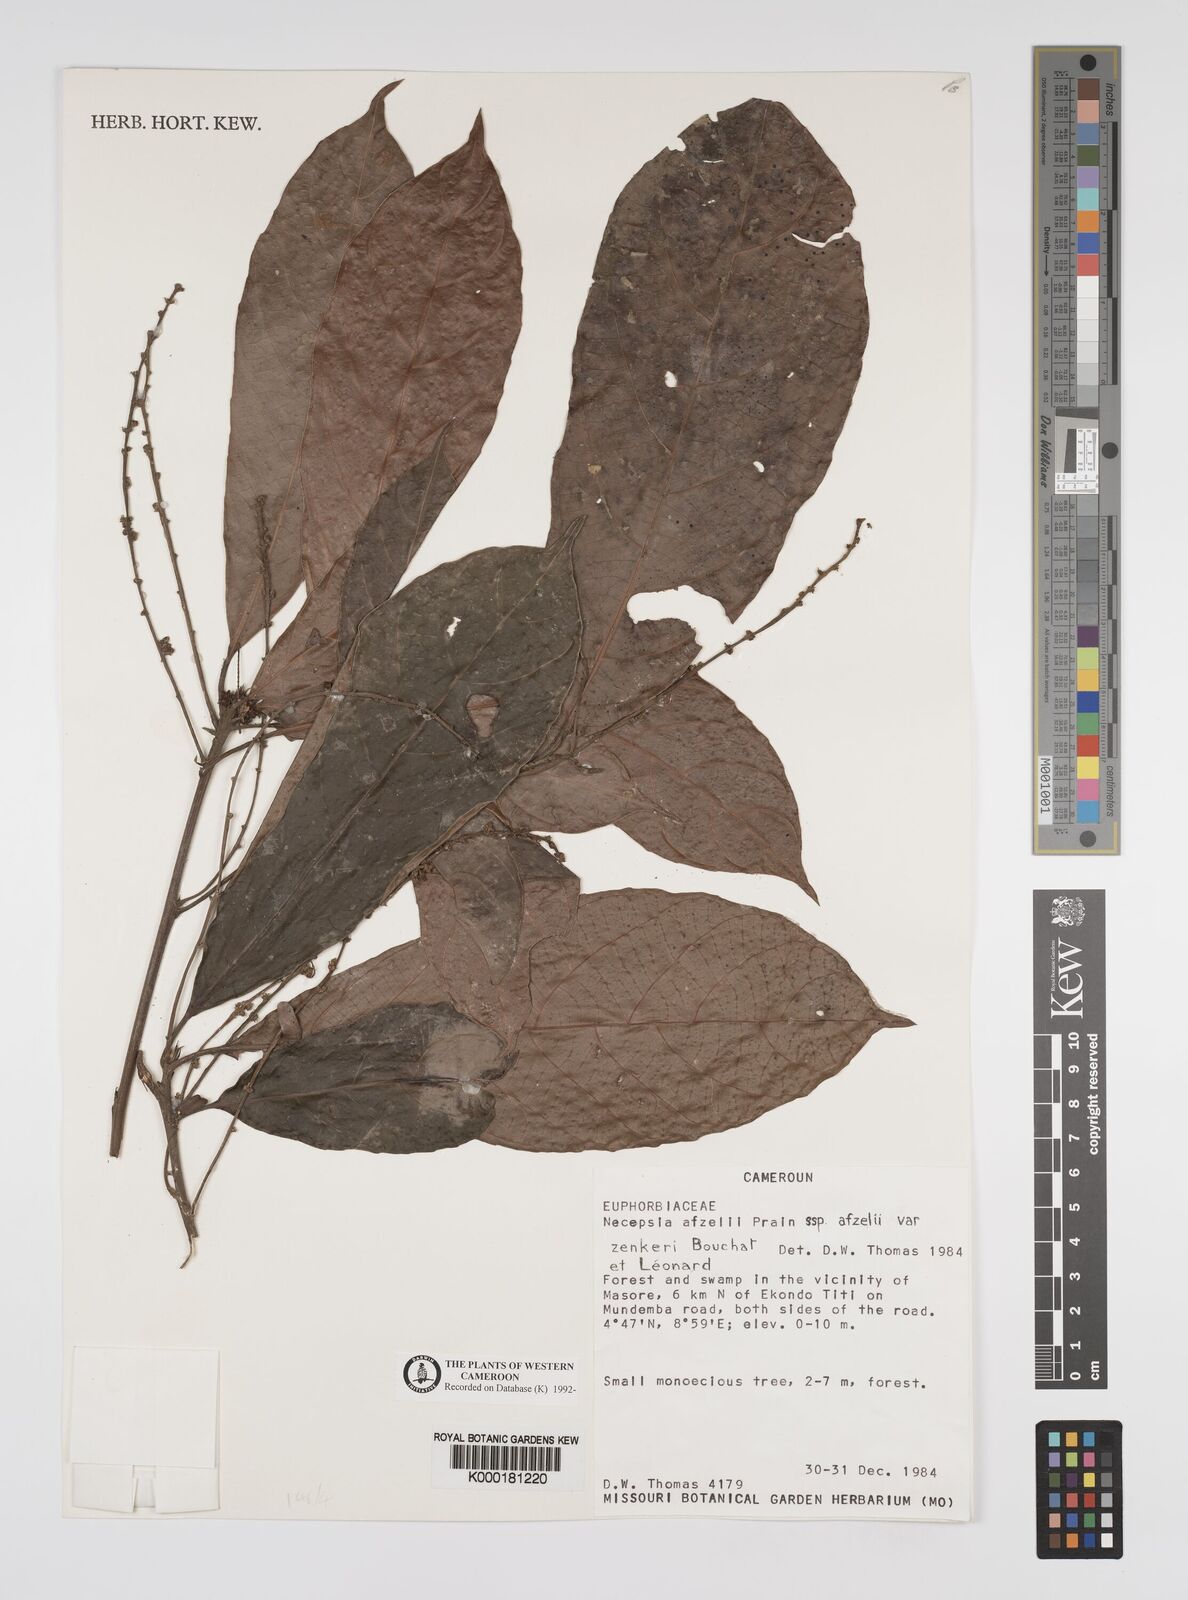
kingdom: Plantae
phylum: Tracheophyta
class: Magnoliopsida
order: Malpighiales
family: Euphorbiaceae
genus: Necepsia
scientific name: Necepsia afzelii
